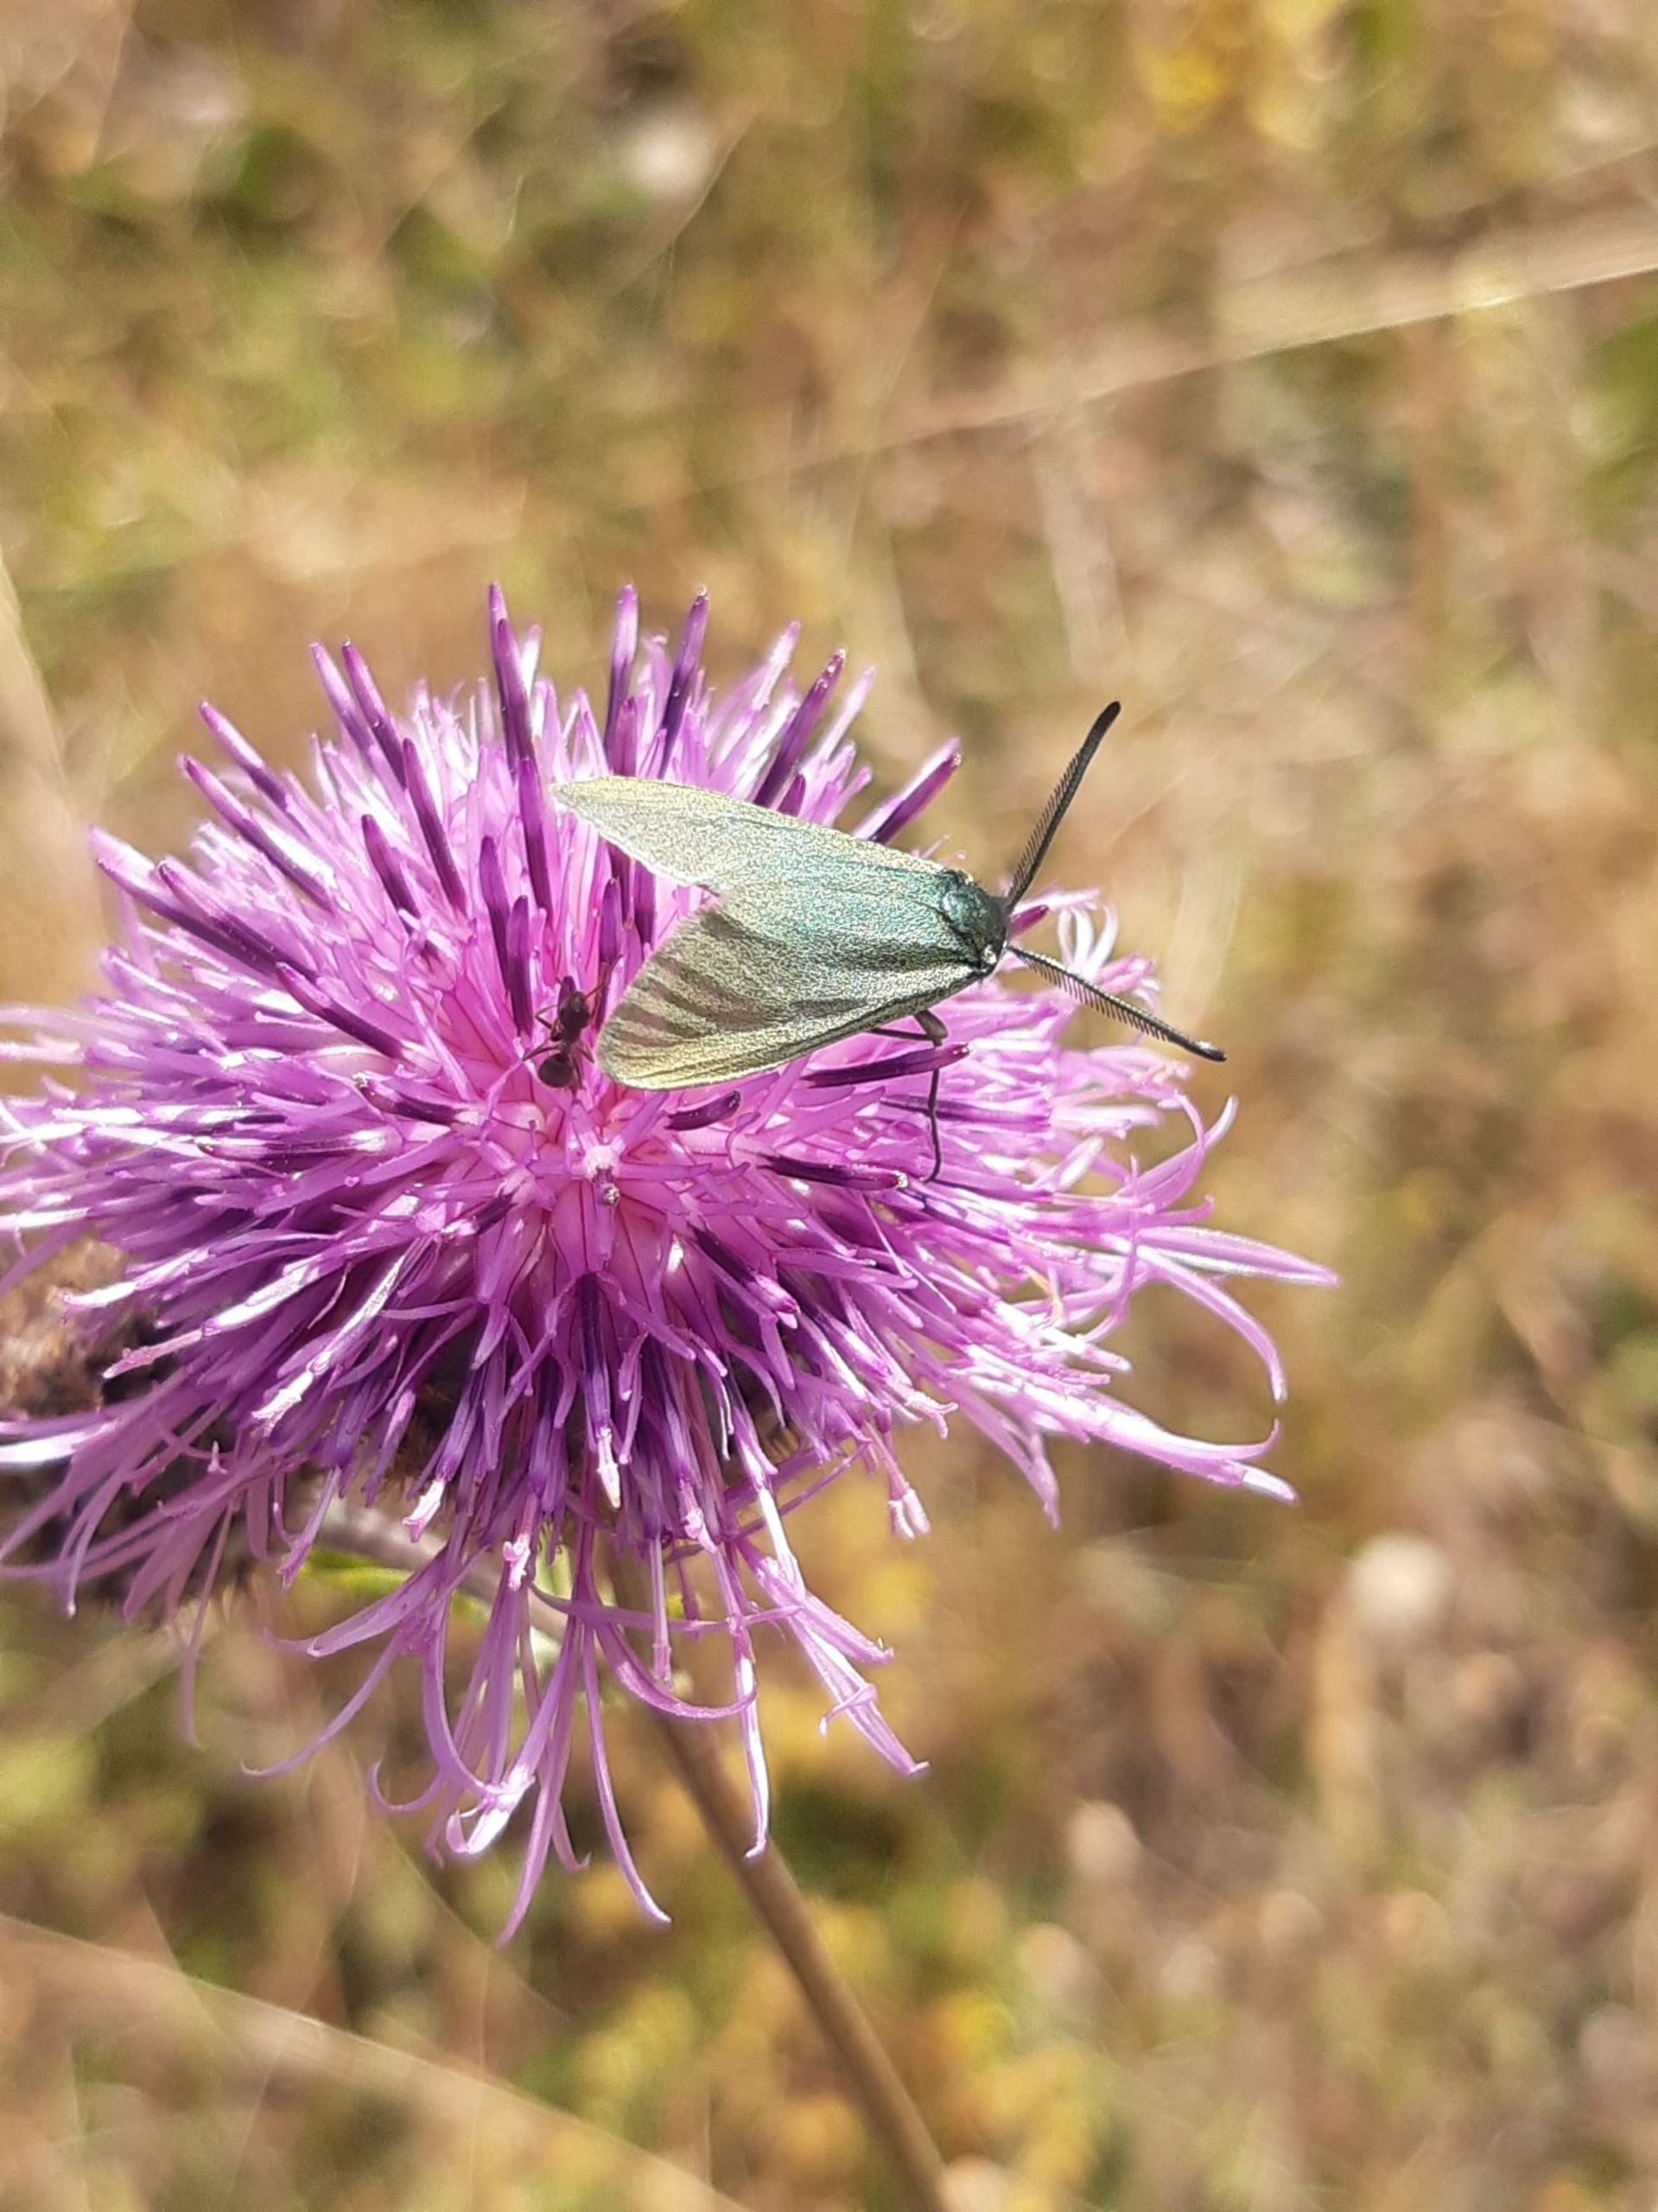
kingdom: Animalia
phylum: Arthropoda
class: Insecta
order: Lepidoptera
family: Zygaenidae
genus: Adscita
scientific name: Adscita statices
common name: Metalvinge
